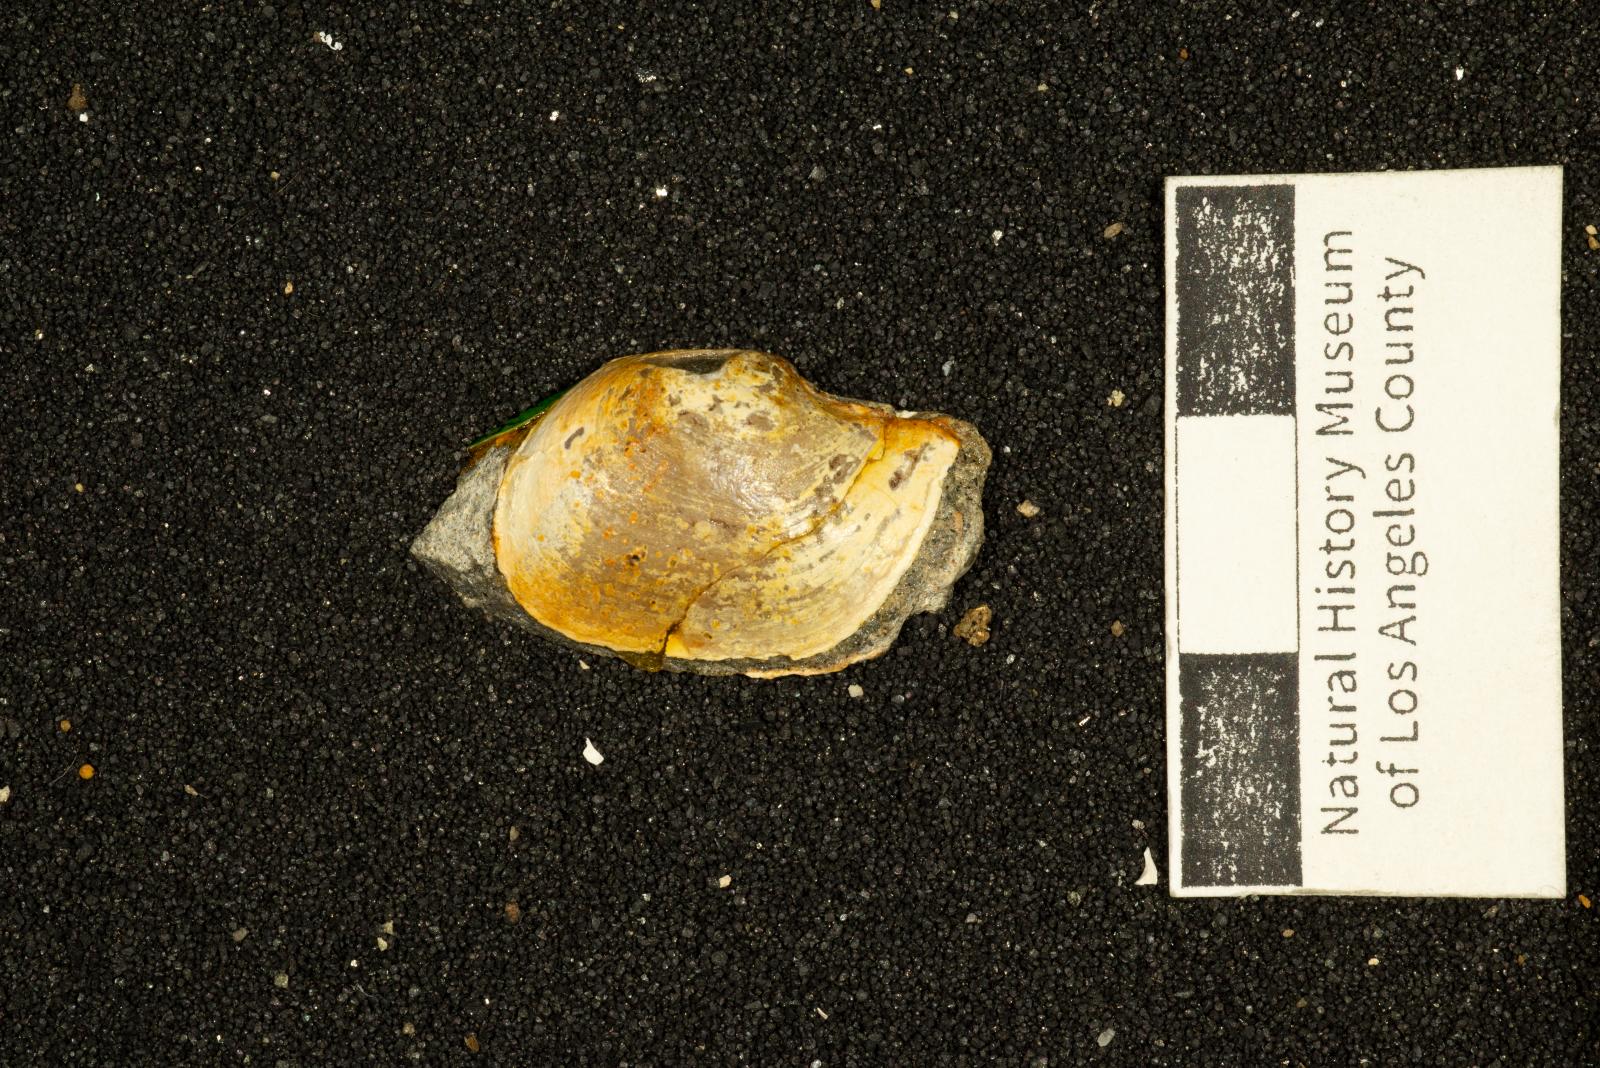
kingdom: Animalia
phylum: Mollusca
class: Bivalvia
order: Cardiida
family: Tancrediidae
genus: Meekia
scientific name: Meekia daileyi
